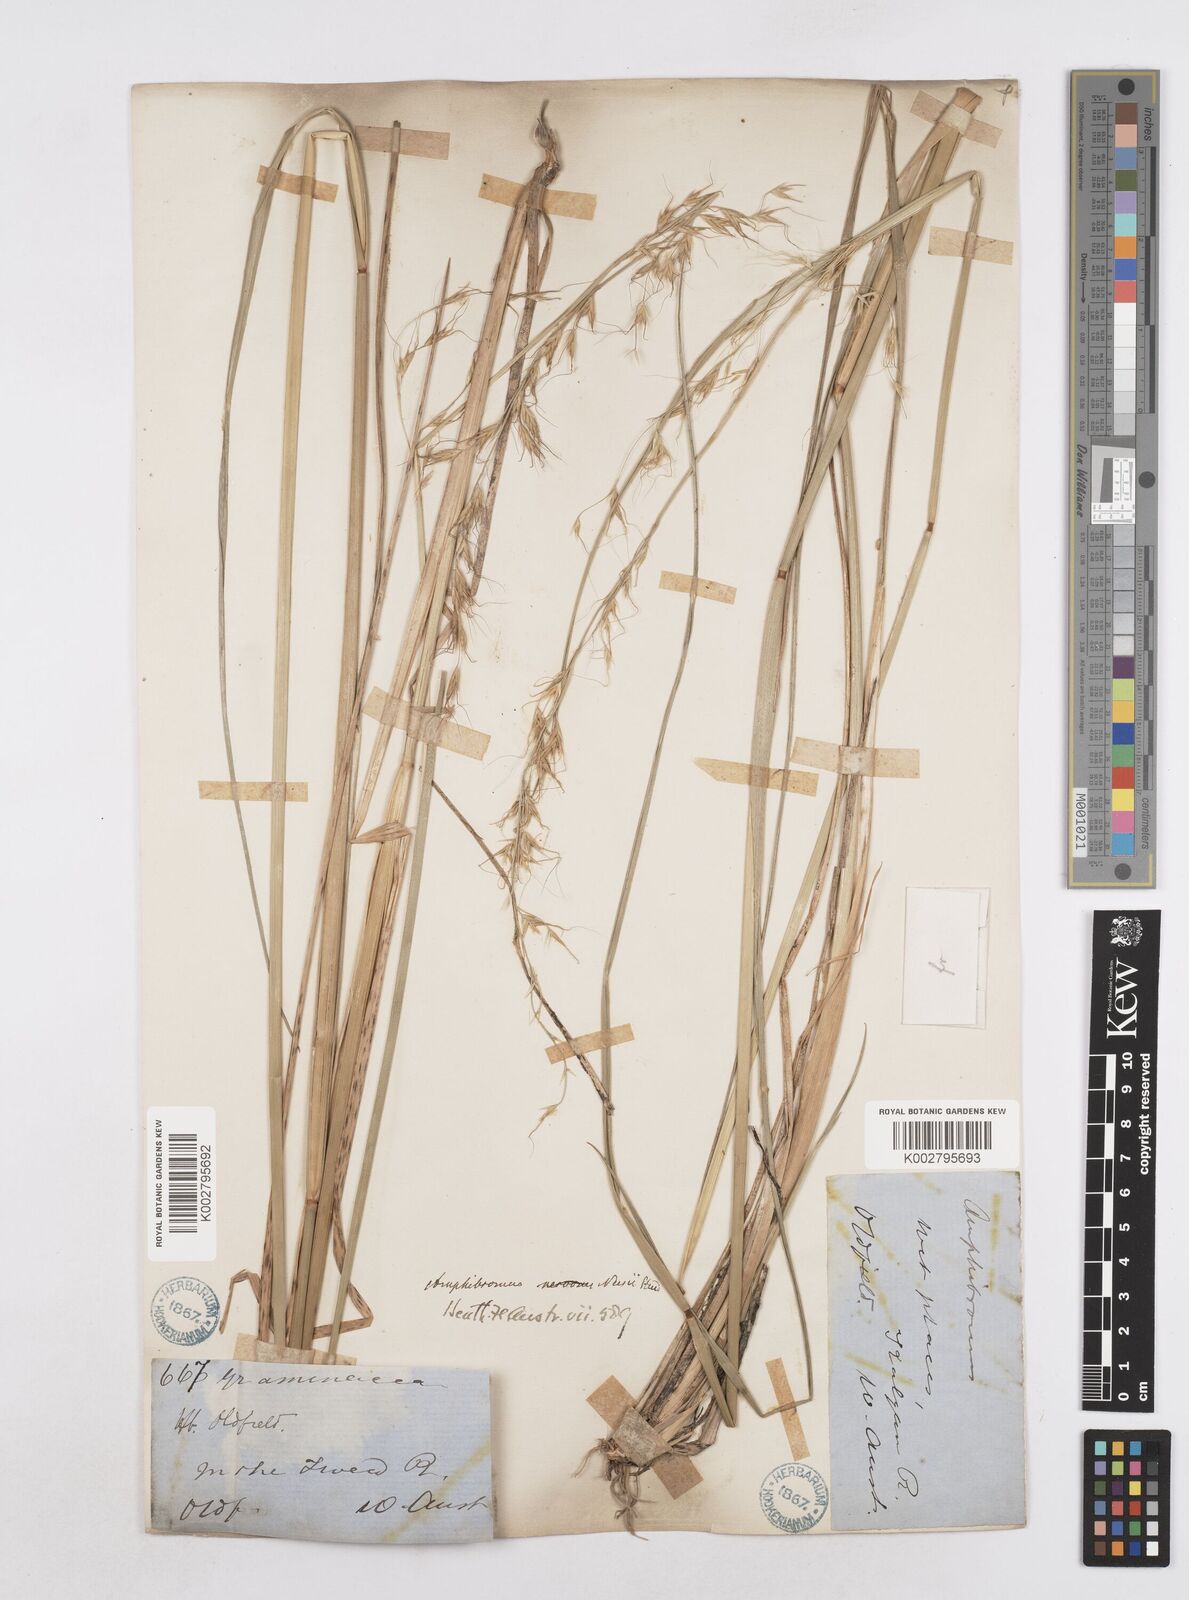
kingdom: Plantae
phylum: Tracheophyta
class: Liliopsida
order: Poales
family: Poaceae
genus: Amphibromus
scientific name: Amphibromus neesii
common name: Australian wallaby grass
